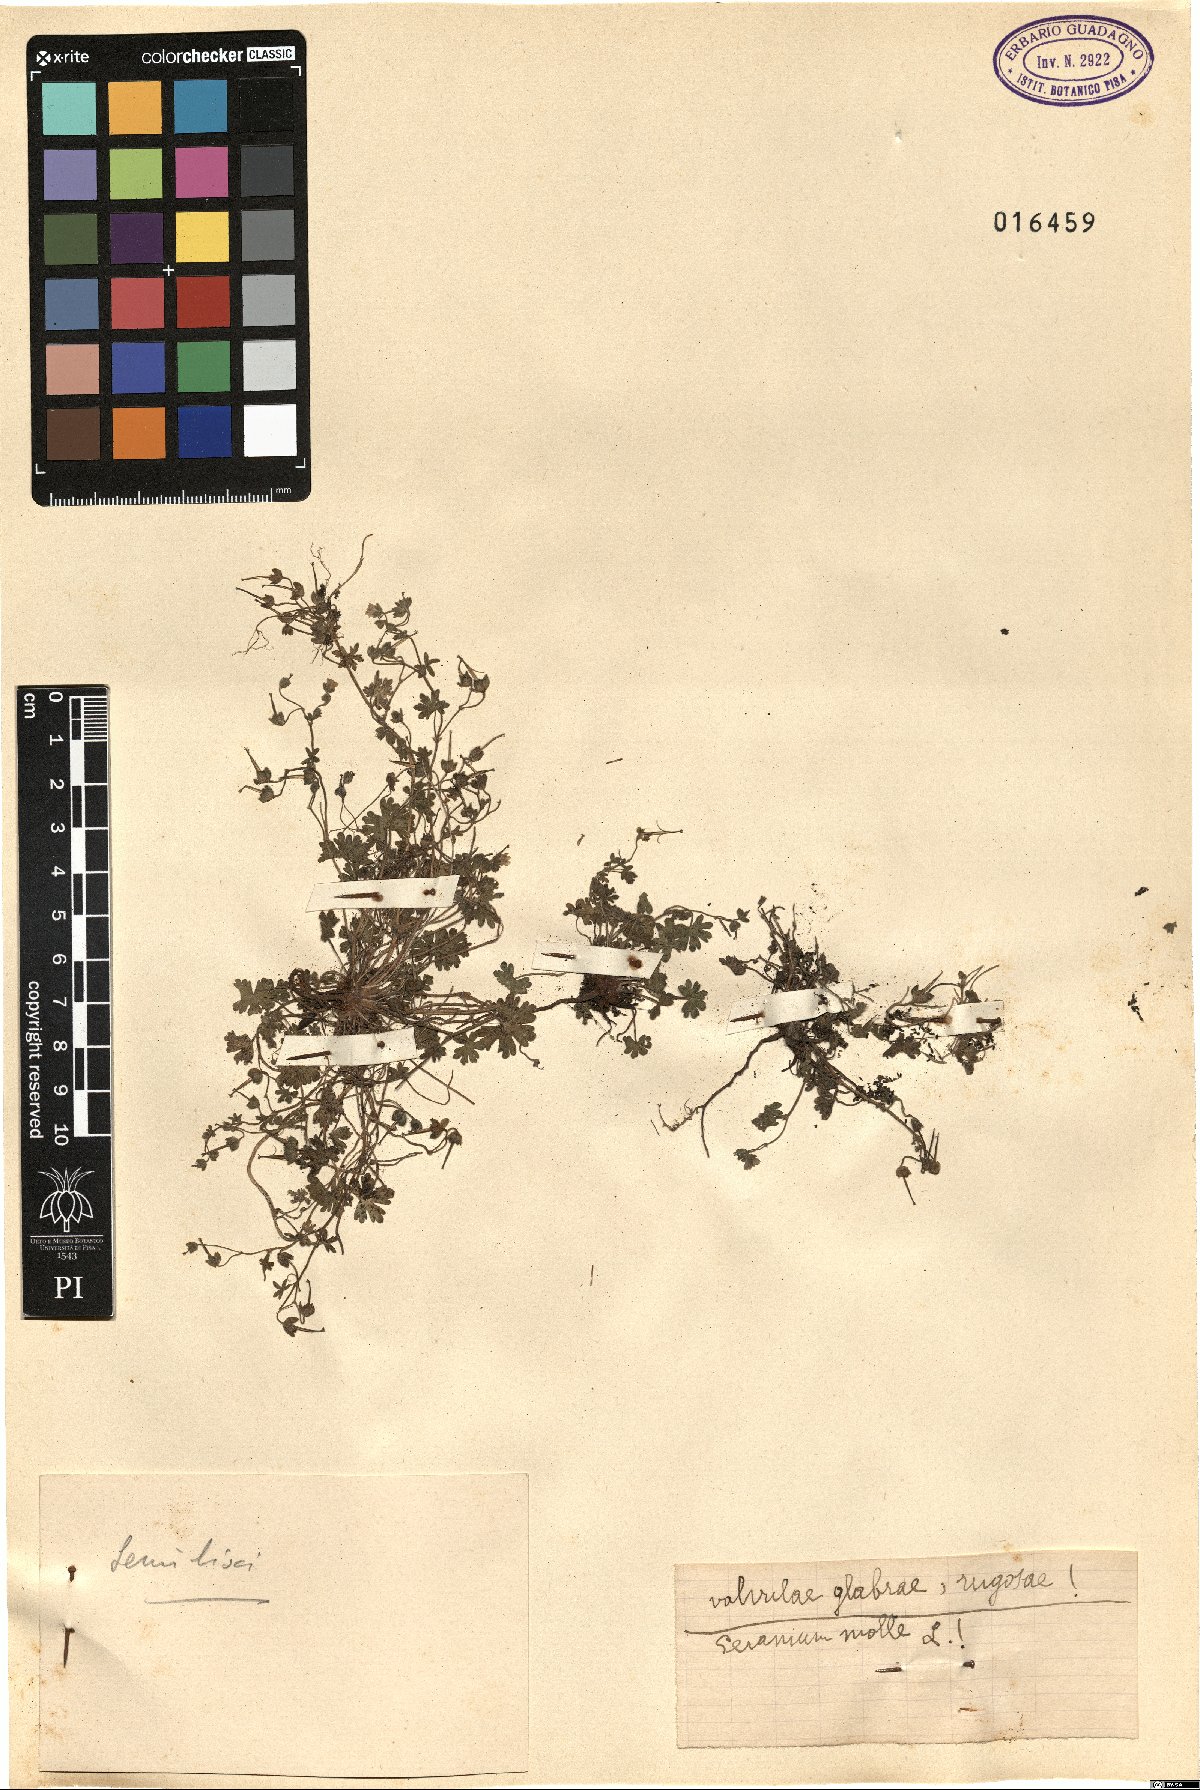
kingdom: Plantae
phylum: Tracheophyta
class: Magnoliopsida
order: Geraniales
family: Geraniaceae
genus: Geranium
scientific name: Geranium molle
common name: Dove's-foot crane's-bill
